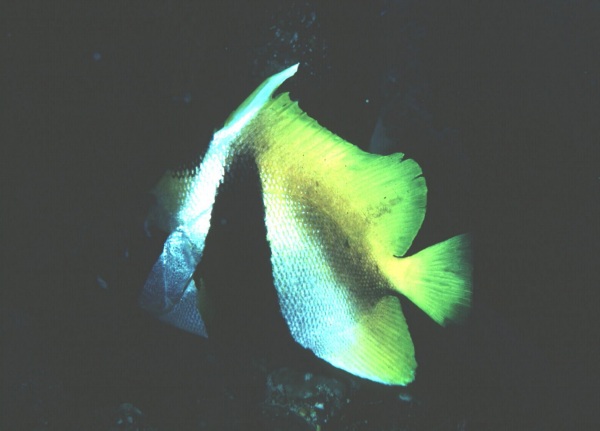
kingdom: Animalia
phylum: Chordata
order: Perciformes
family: Chaetodontidae
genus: Heniochus
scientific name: Heniochus monoceros
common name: Masked bannerfish
